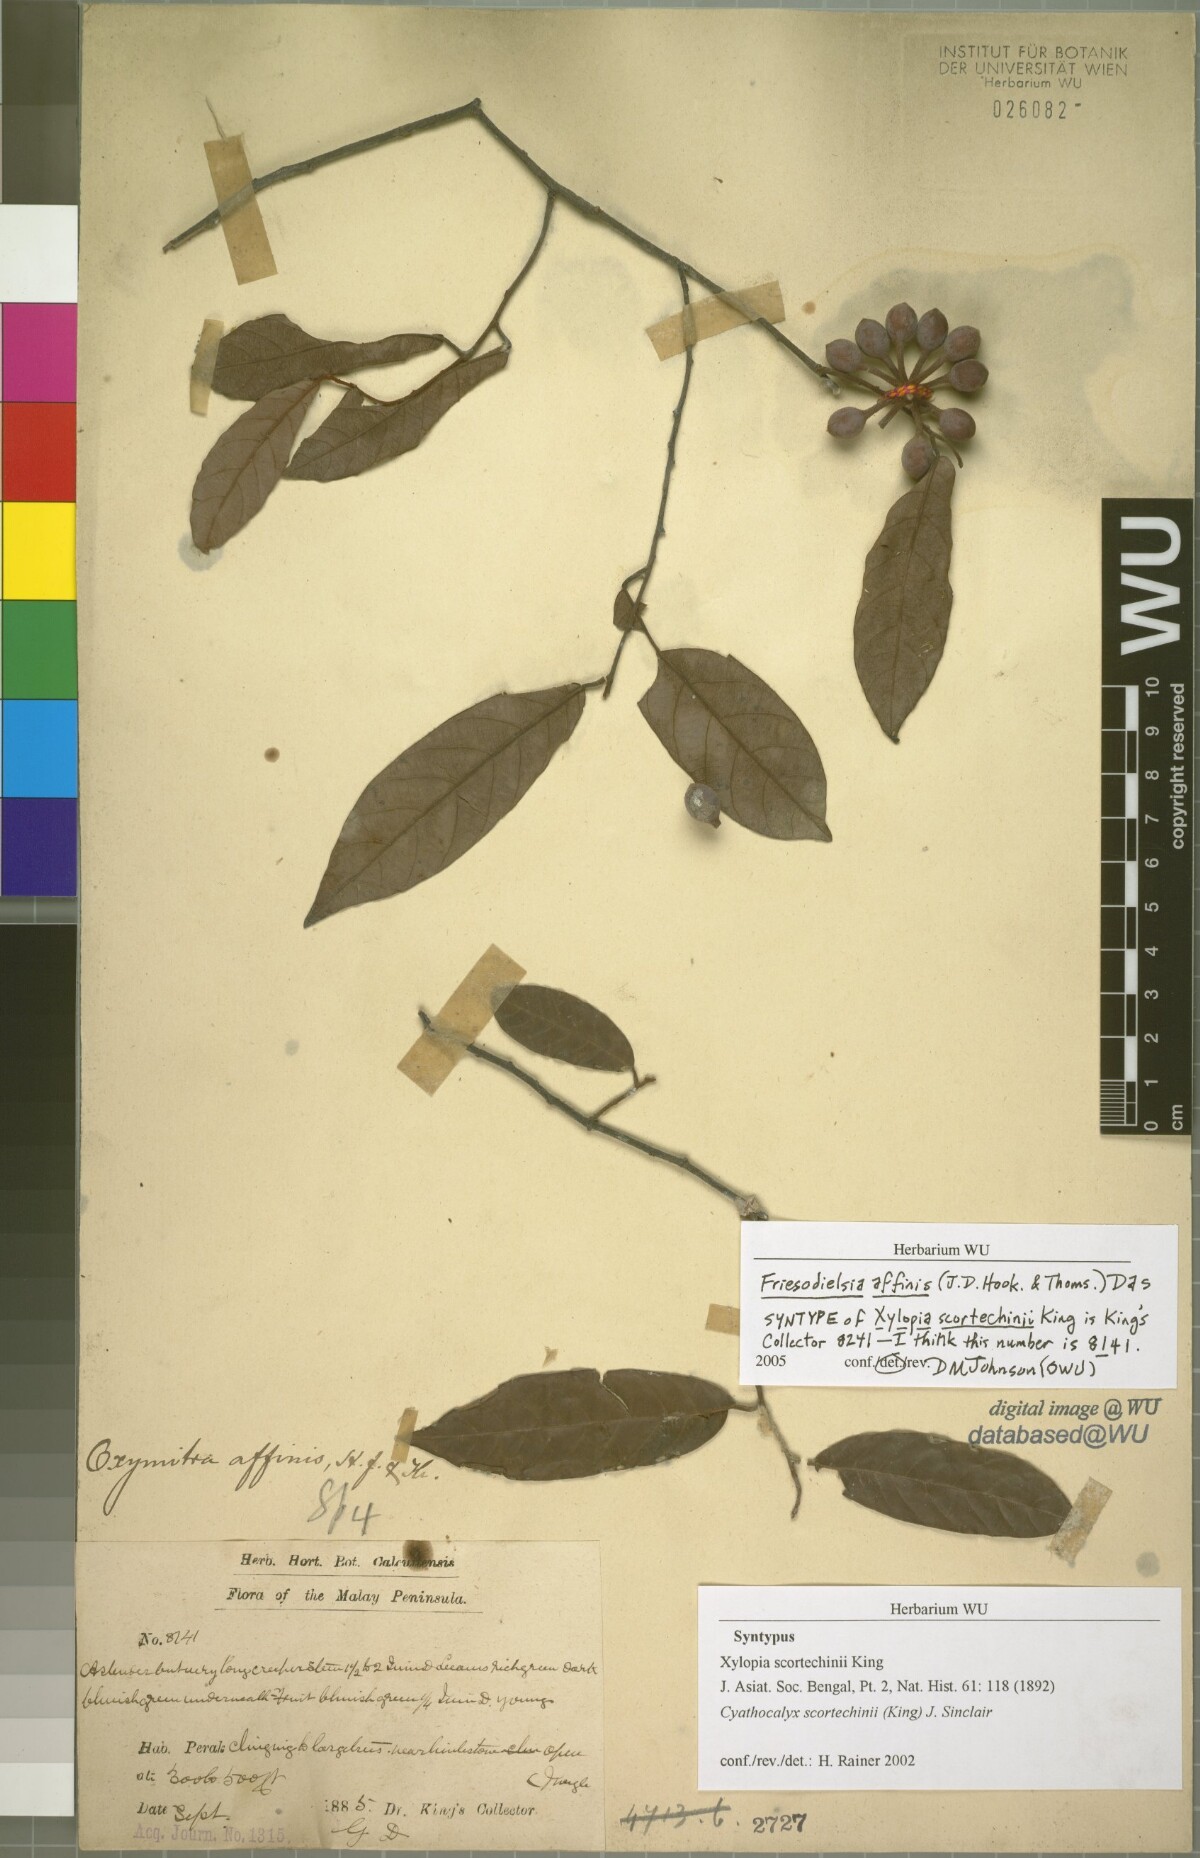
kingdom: Plantae
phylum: Tracheophyta
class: Magnoliopsida
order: Magnoliales
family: Annonaceae
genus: Drepananthus
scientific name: Drepananthus pubescens
